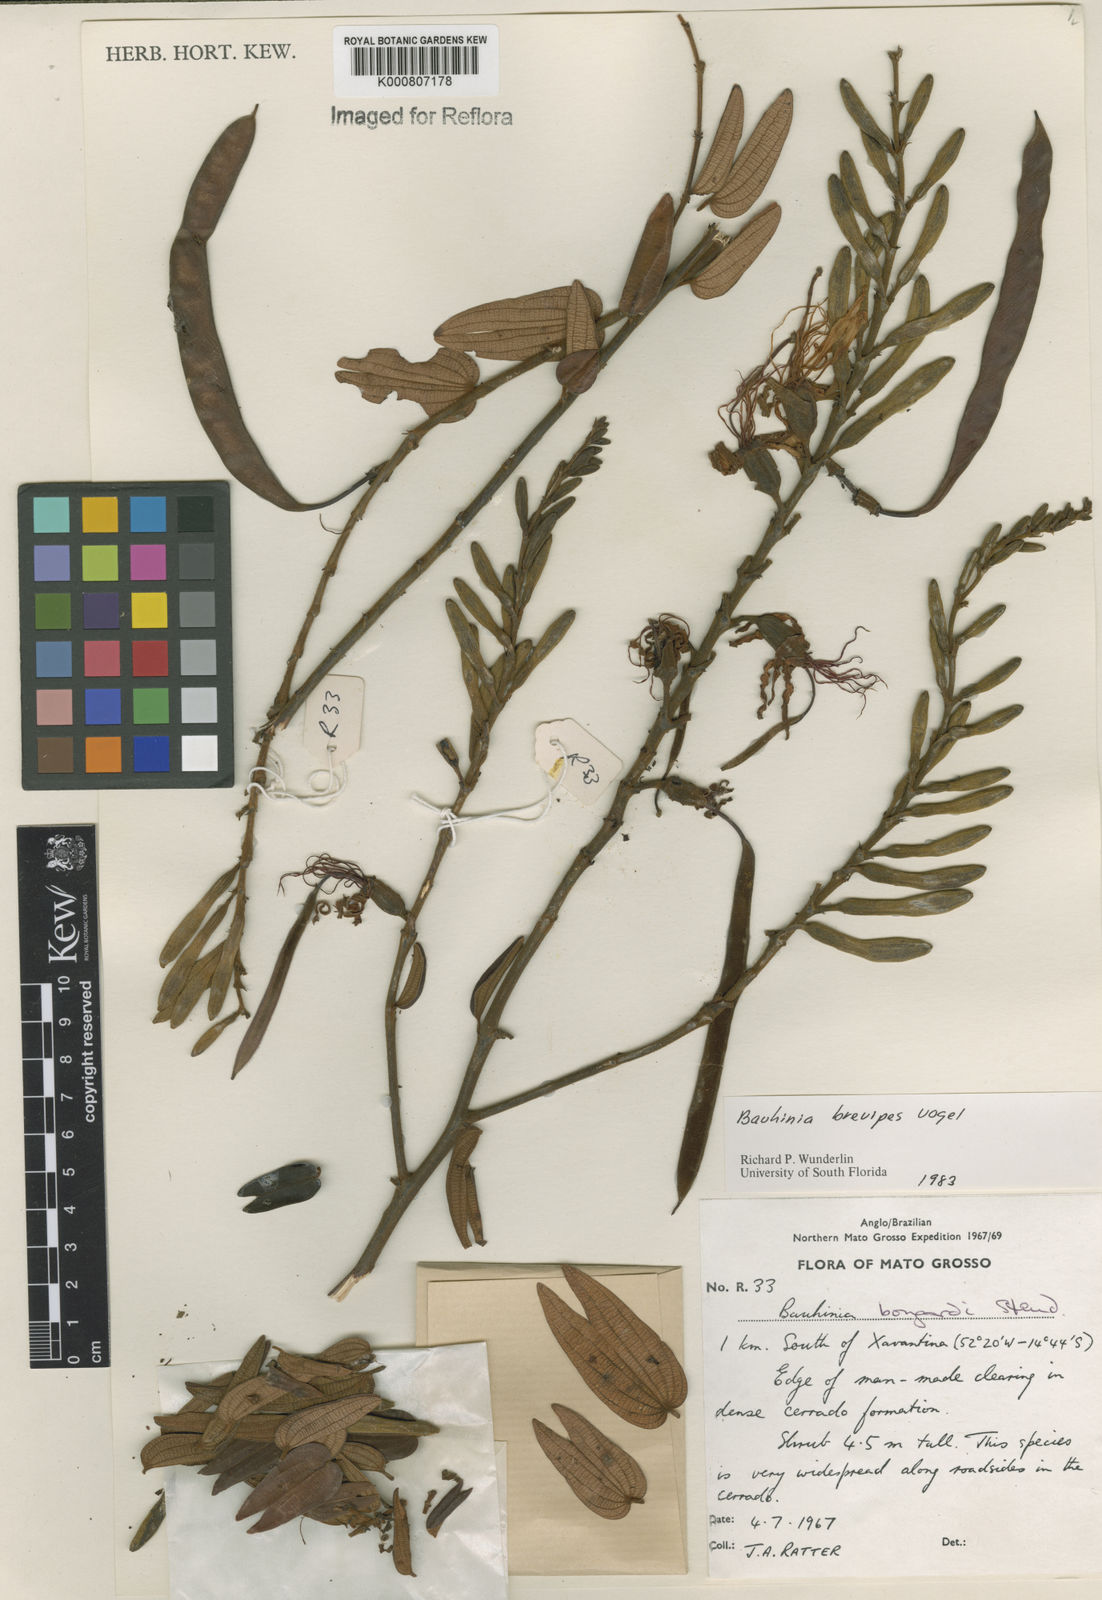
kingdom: Plantae
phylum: Tracheophyta
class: Magnoliopsida
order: Fabales
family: Fabaceae
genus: Bauhinia
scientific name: Bauhinia brevipes
